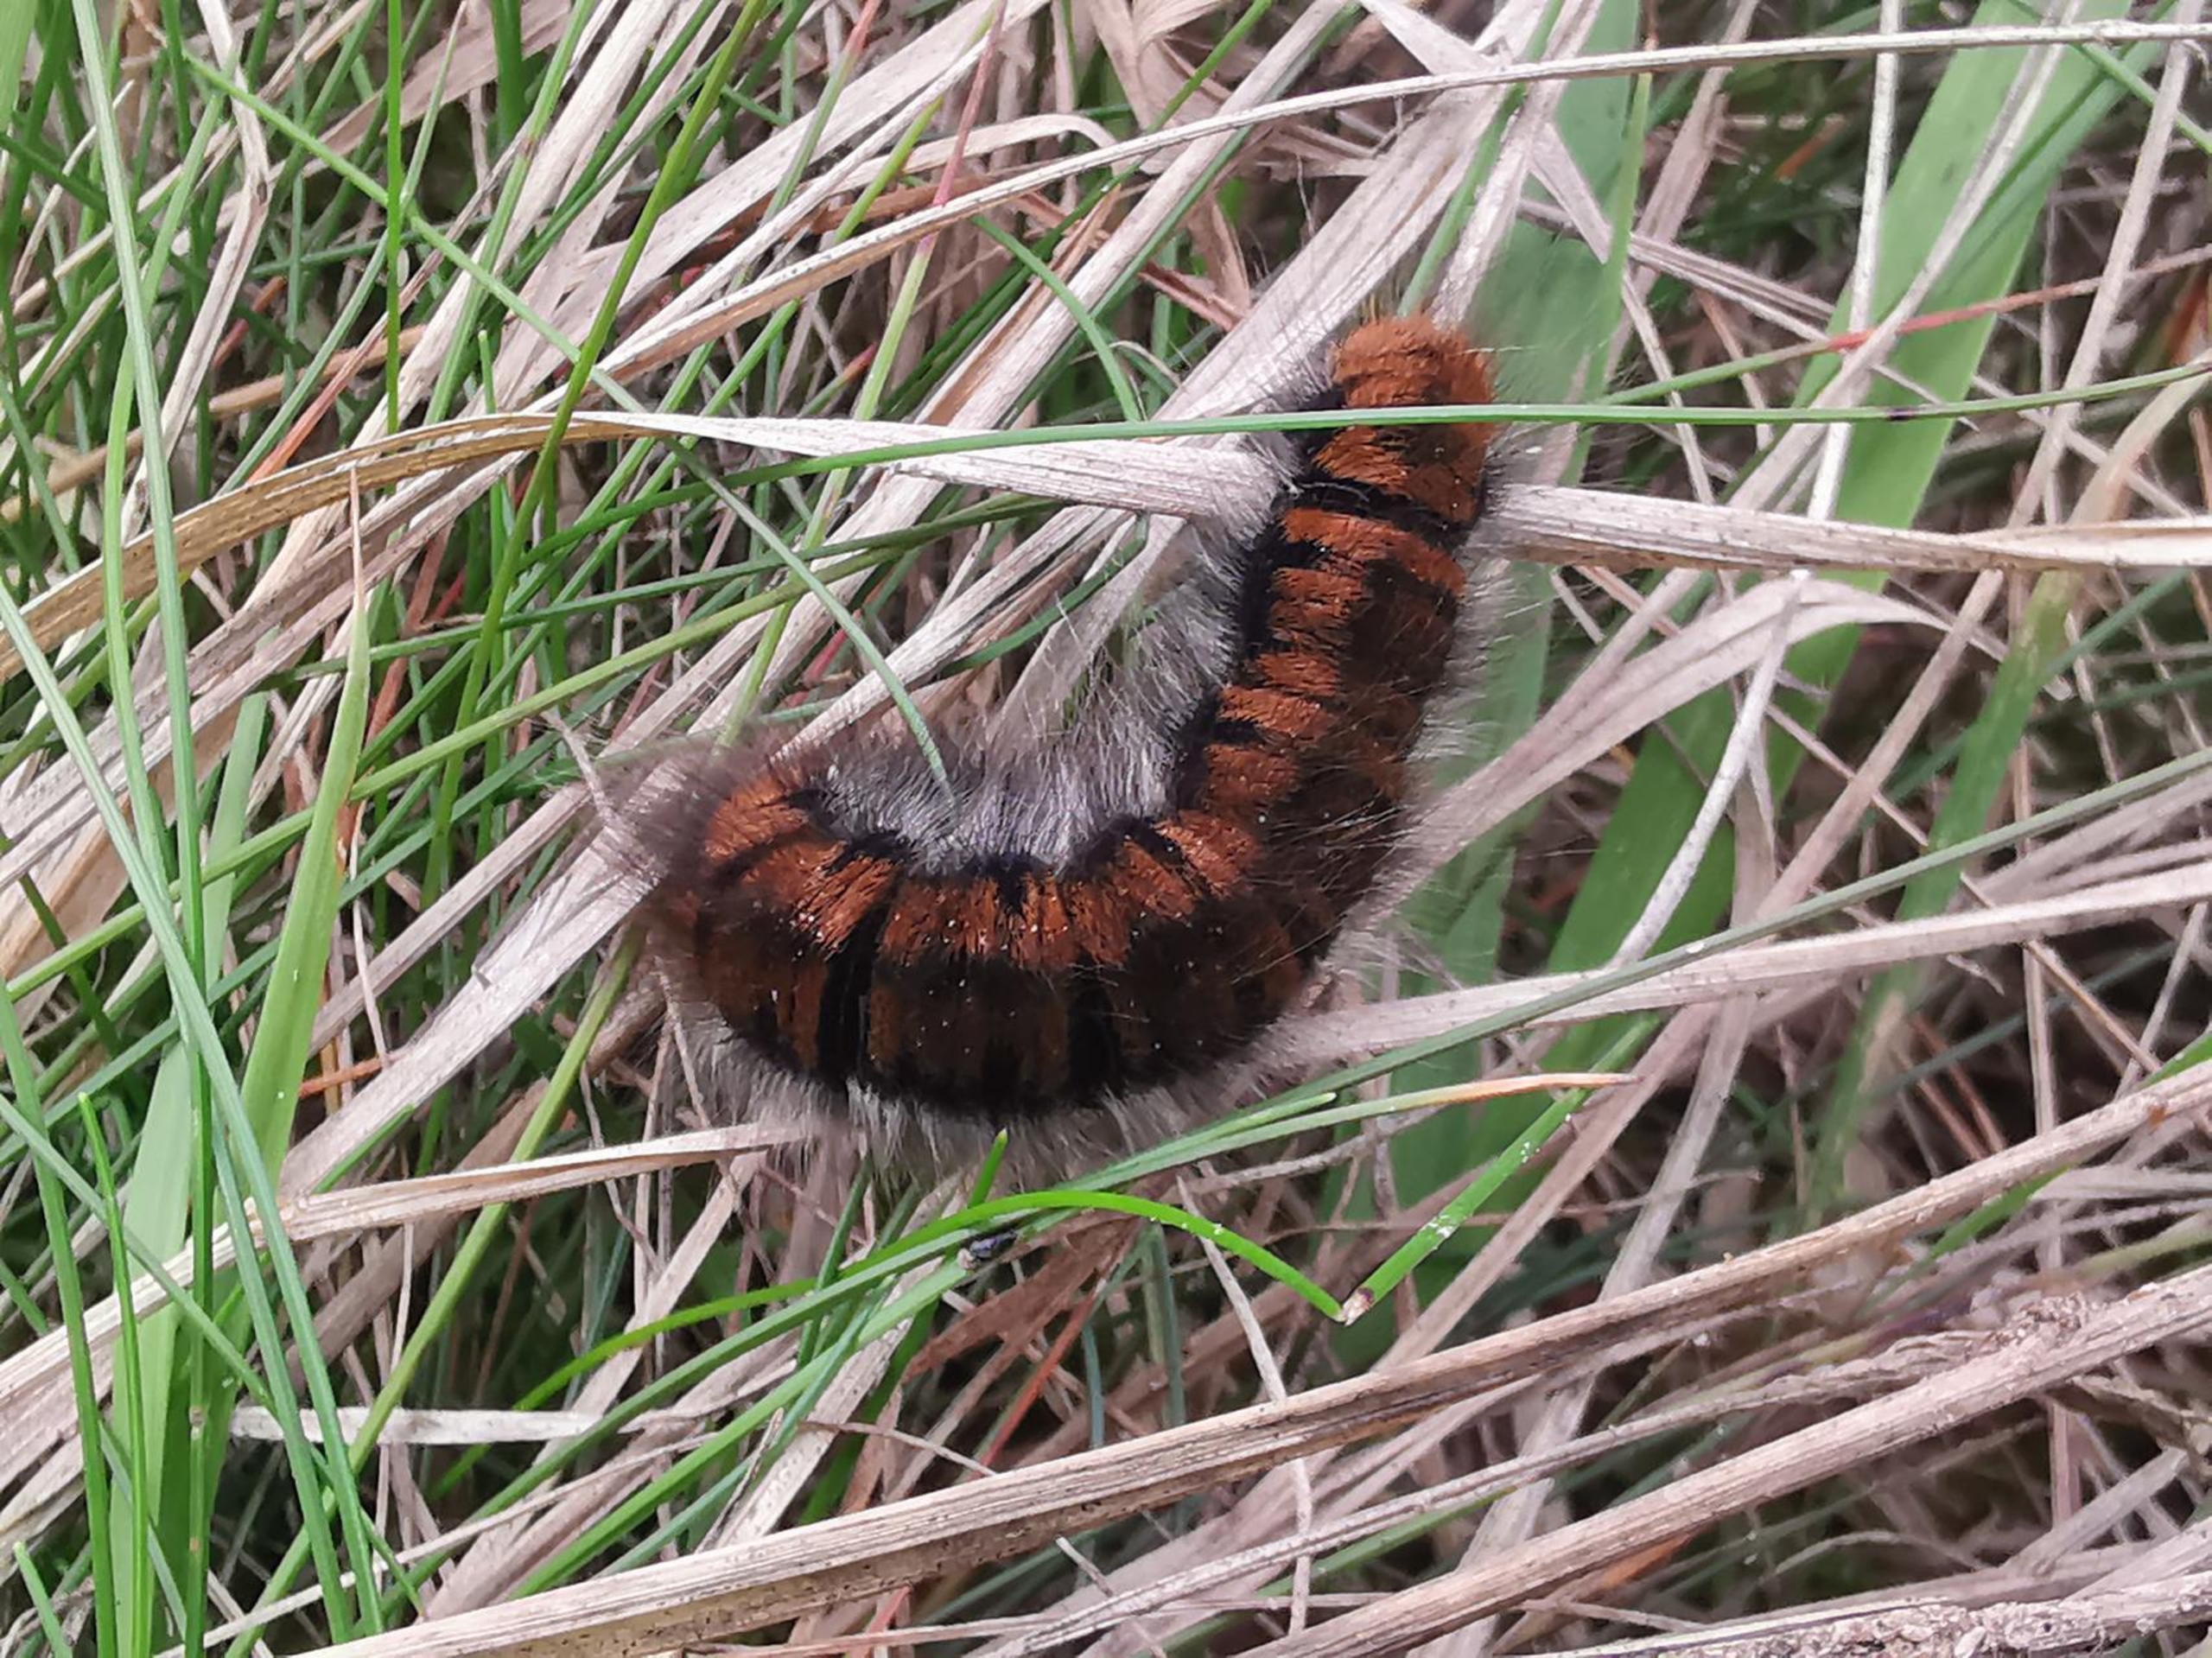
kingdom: Animalia
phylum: Arthropoda
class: Insecta
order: Lepidoptera
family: Lasiocampidae
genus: Macrothylacia
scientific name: Macrothylacia rubi
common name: Brombærspinder
